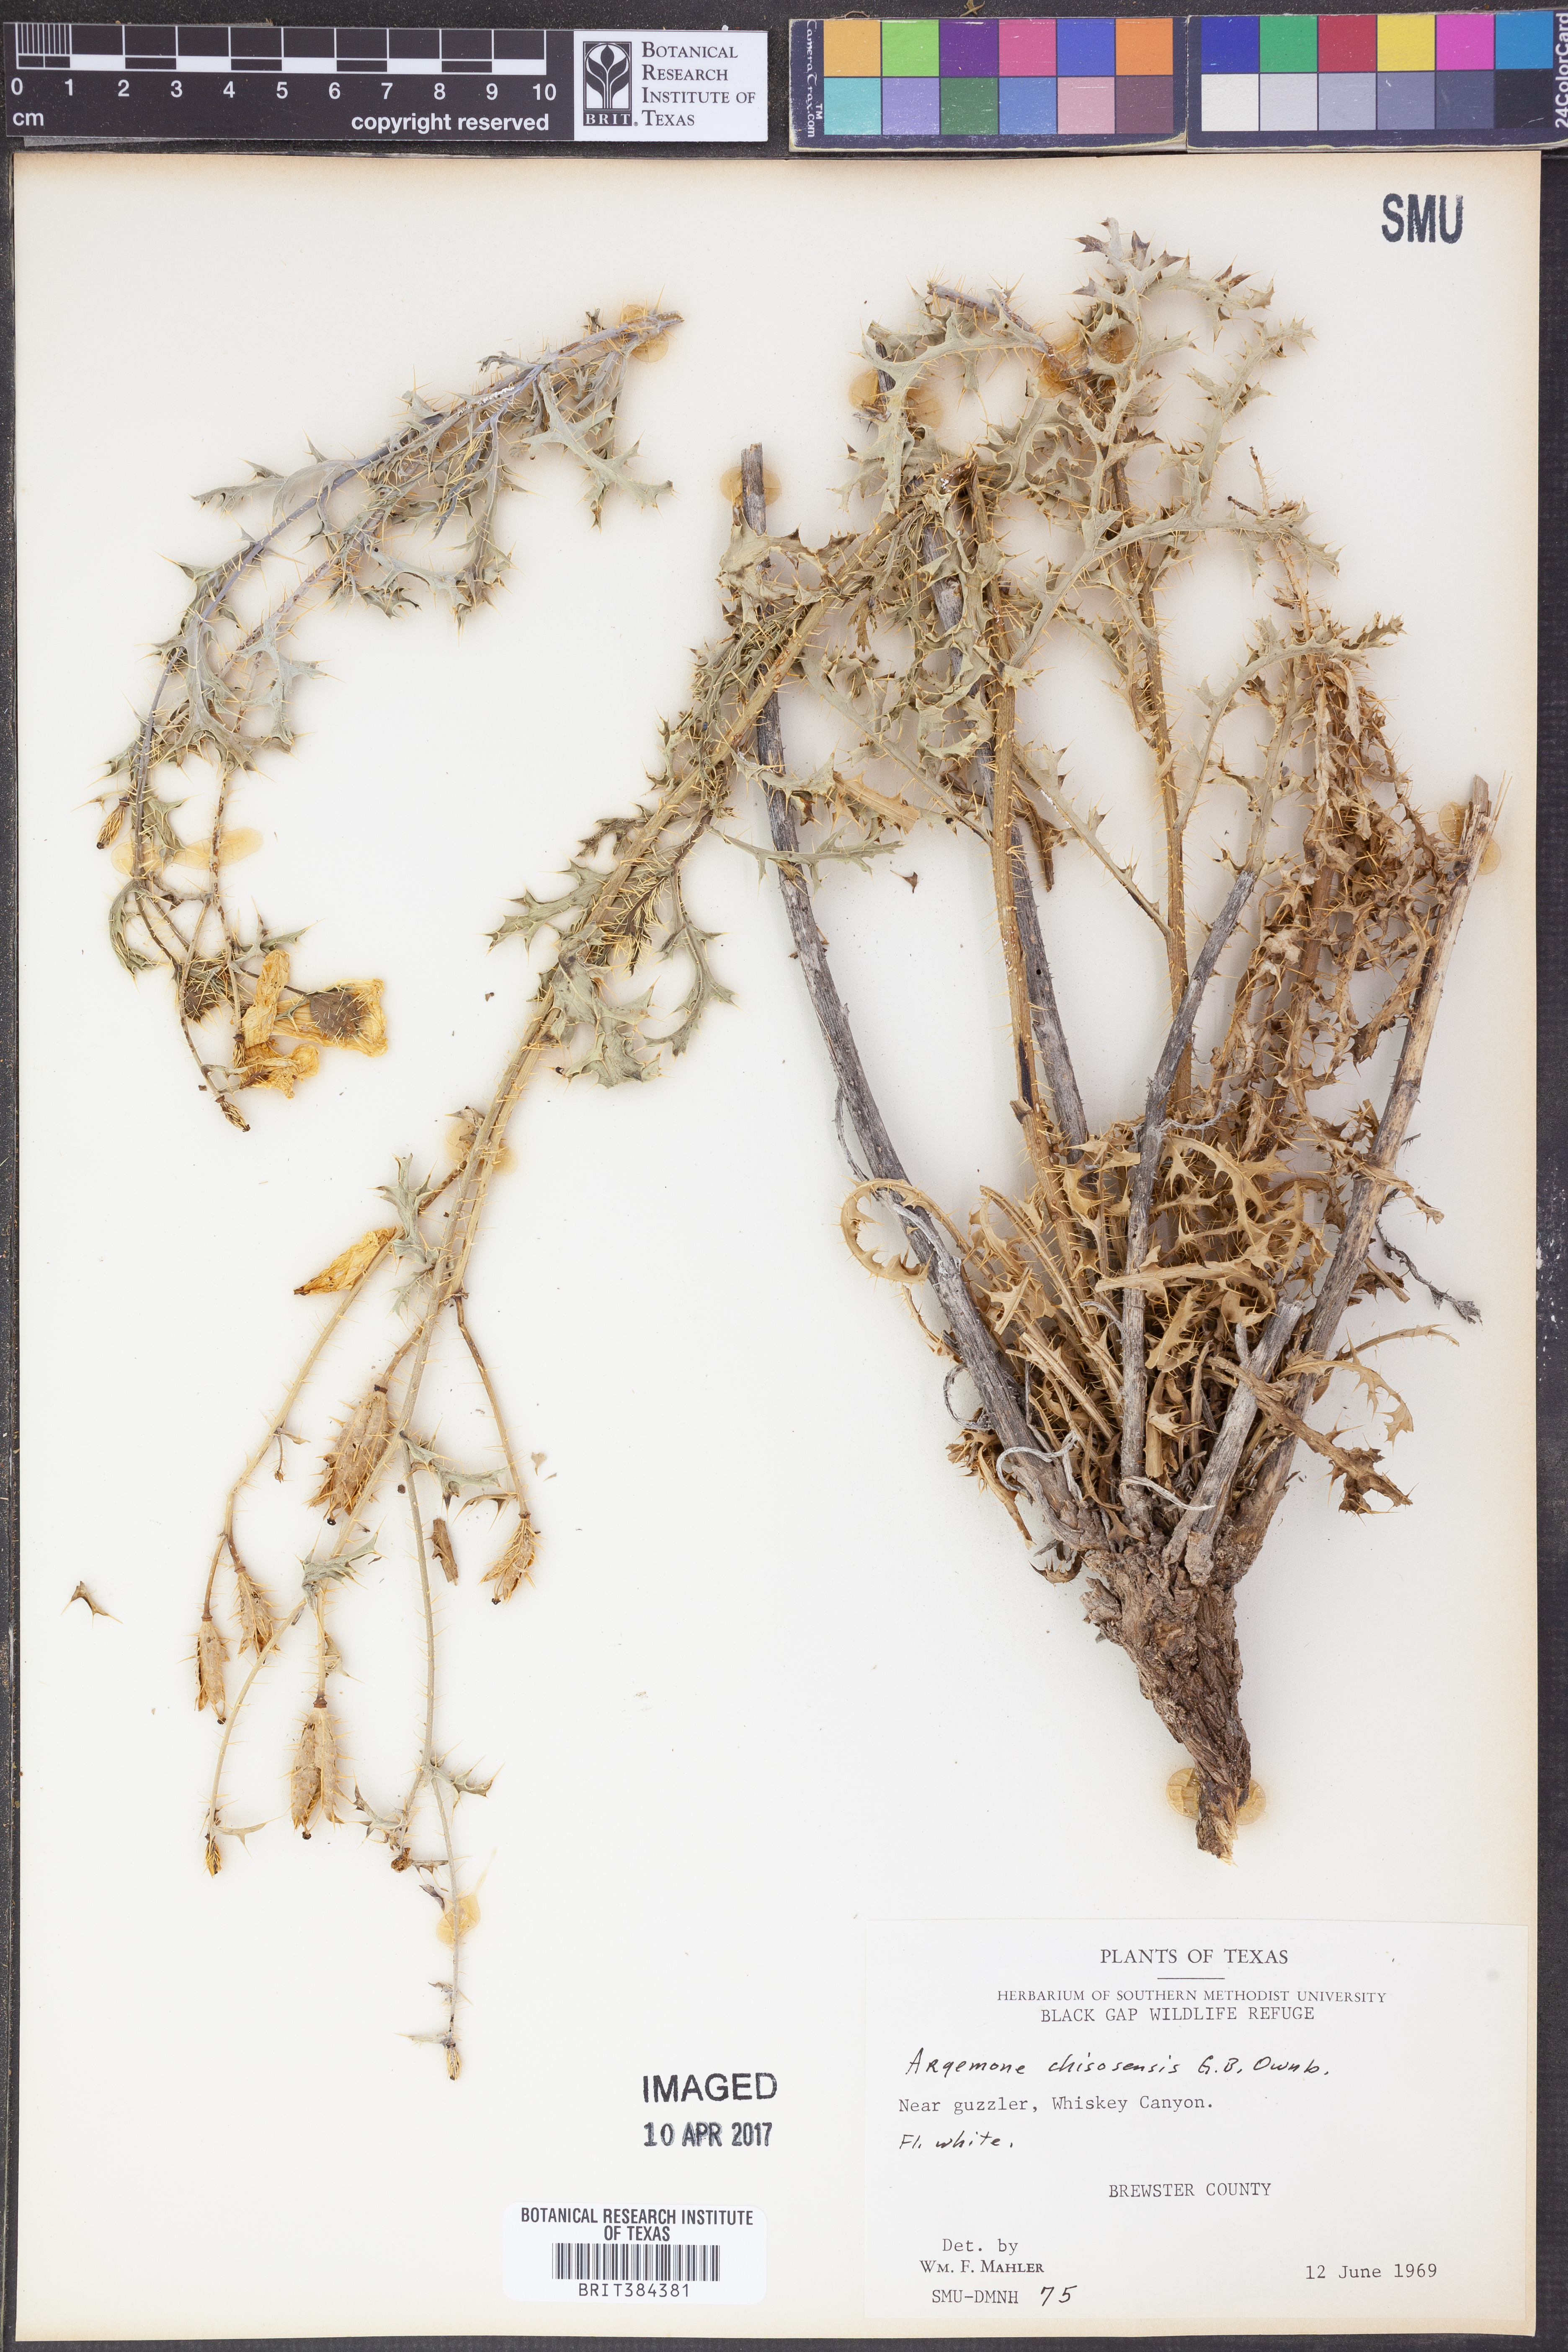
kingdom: Plantae
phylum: Tracheophyta
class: Magnoliopsida
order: Ranunculales
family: Papaveraceae
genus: Argemone
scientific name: Argemone chisosensis
